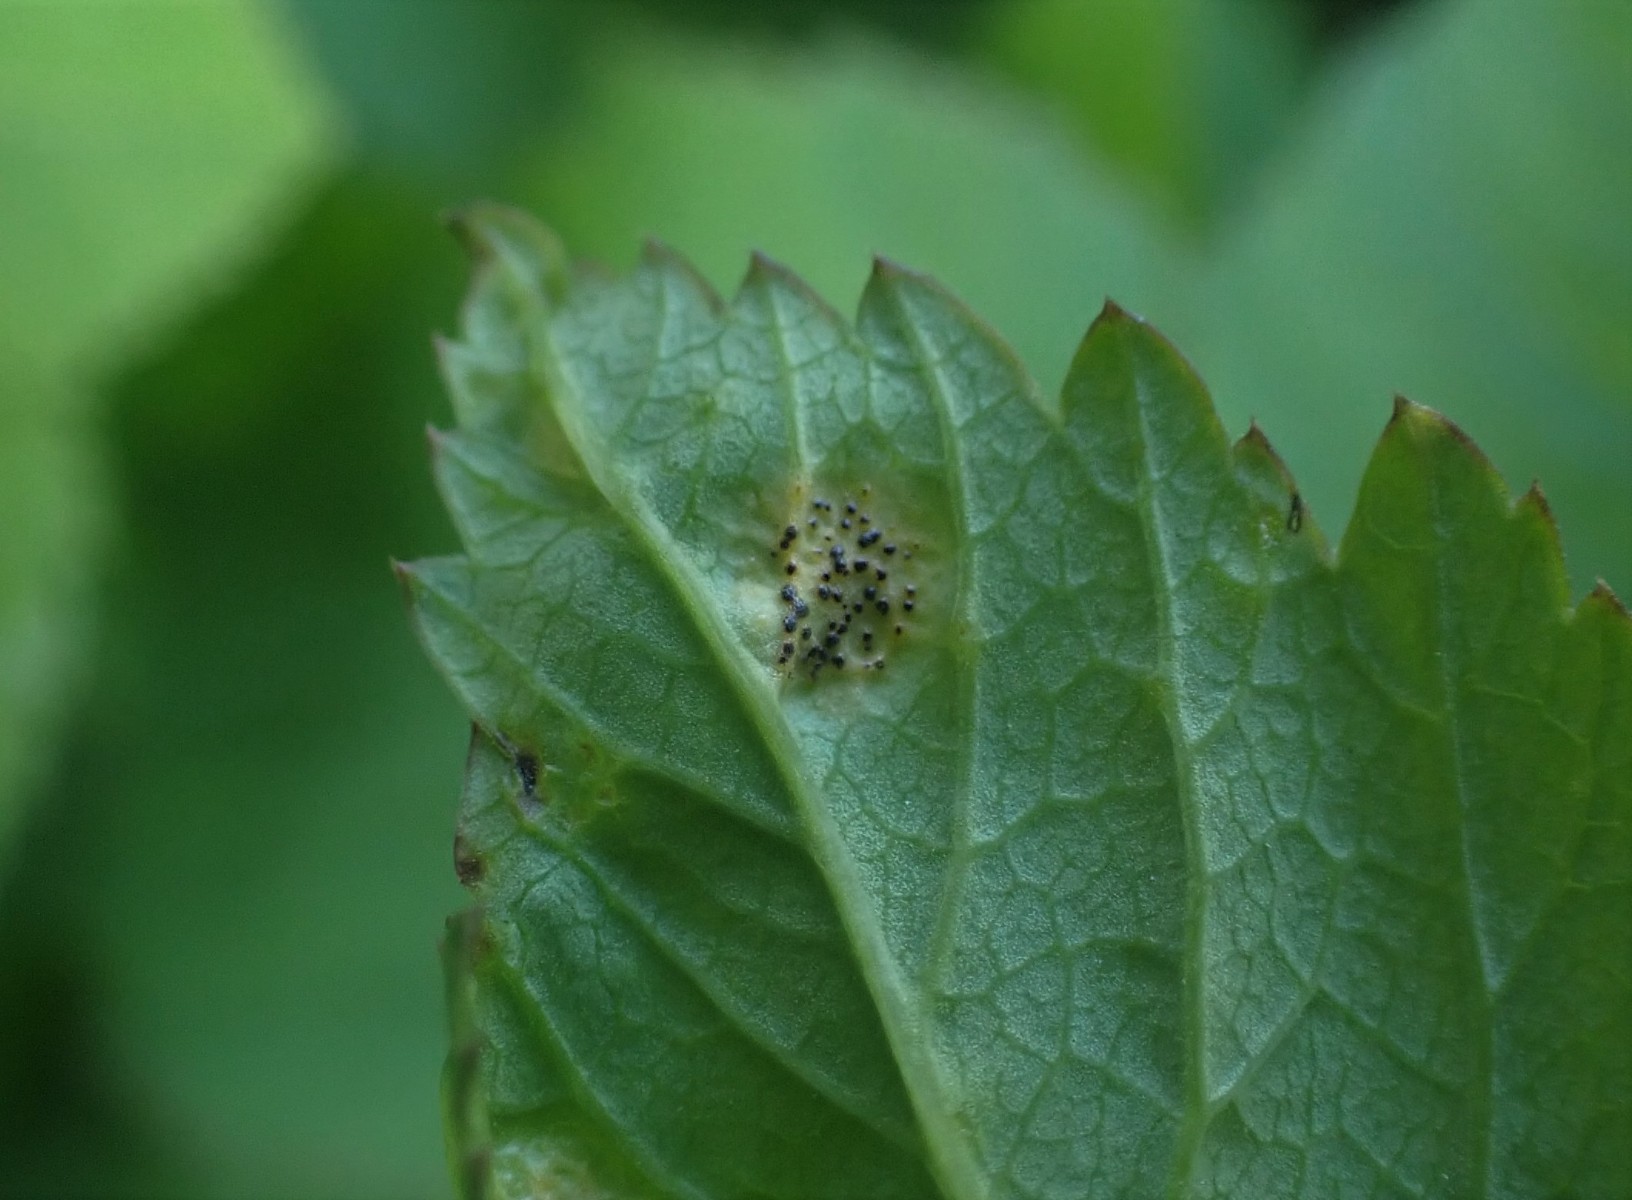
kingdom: Fungi
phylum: Basidiomycota
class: Pucciniomycetes
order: Pucciniales
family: Pucciniaceae
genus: Puccinia
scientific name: Puccinia
